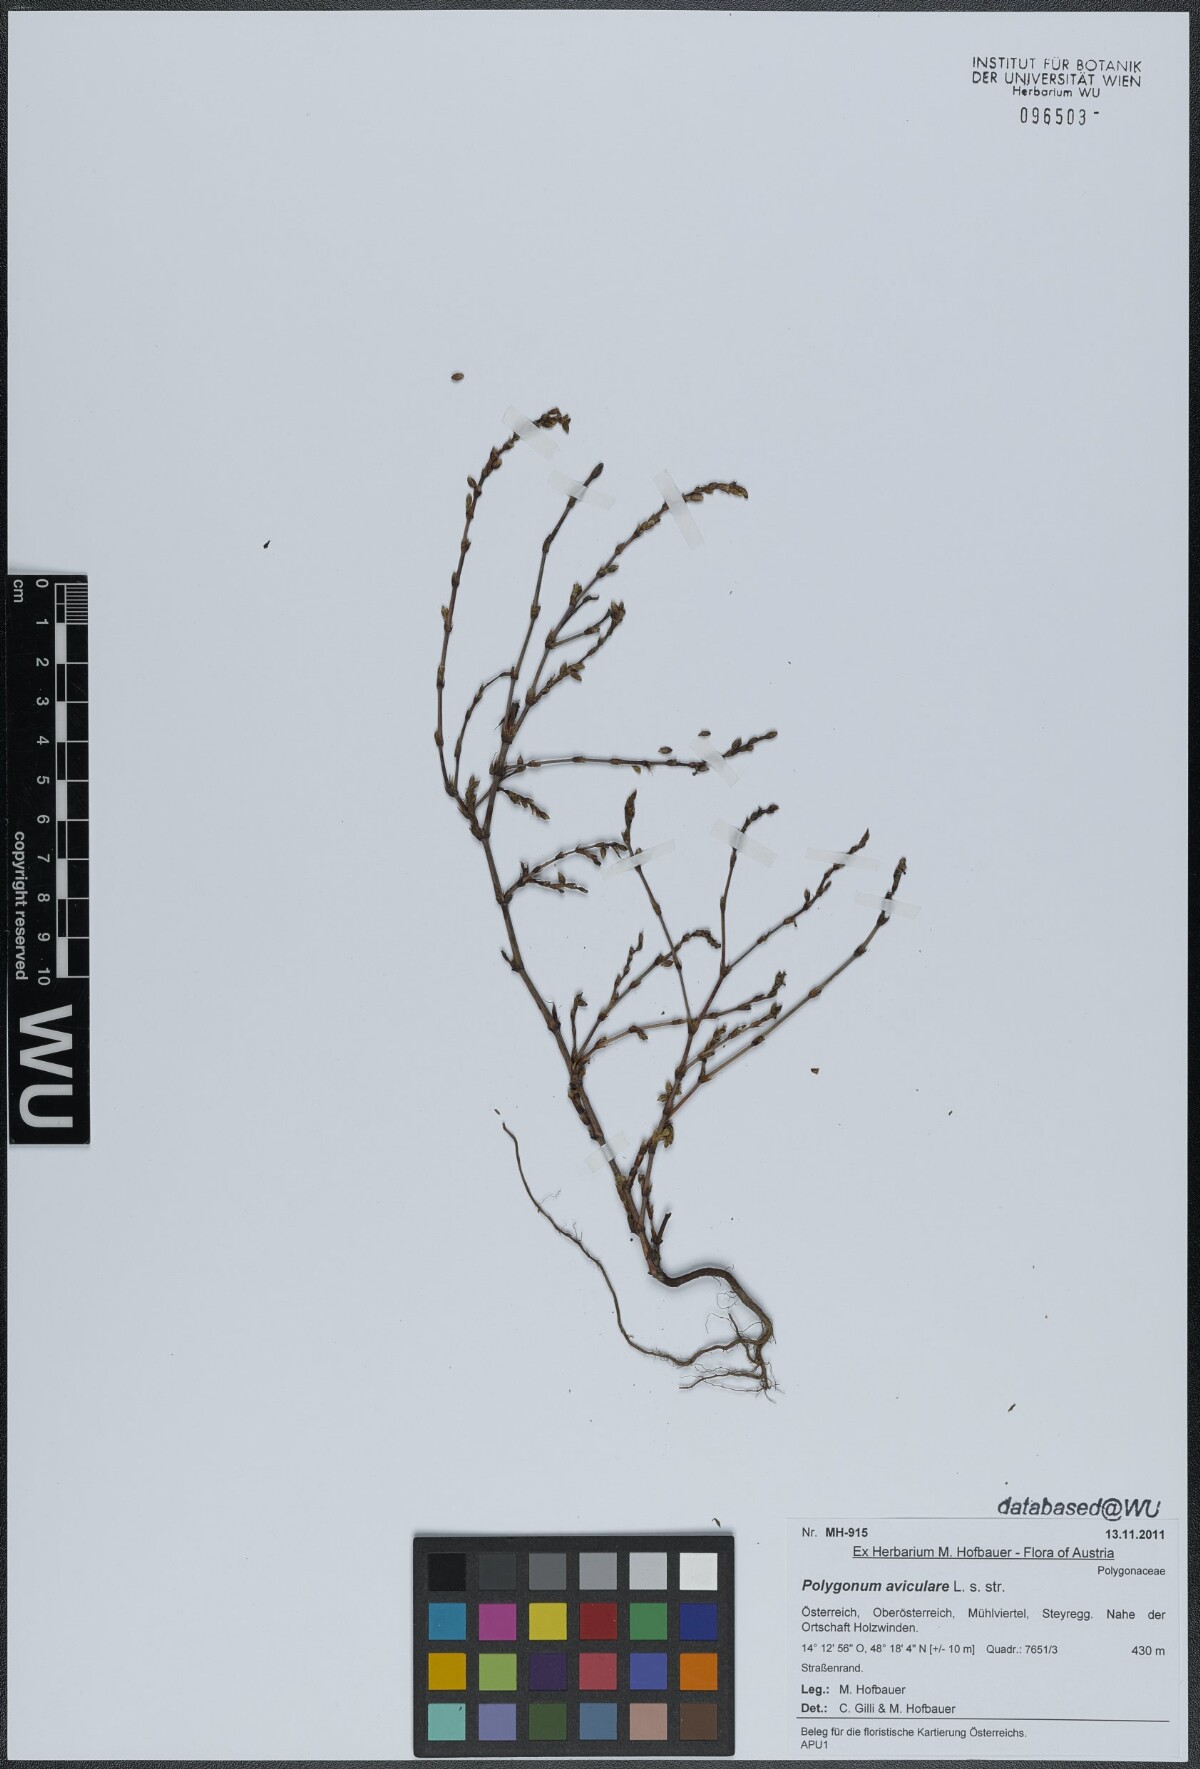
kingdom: Plantae
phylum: Tracheophyta
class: Magnoliopsida
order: Caryophyllales
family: Polygonaceae
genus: Polygonum
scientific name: Polygonum aviculare
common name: Prostrate knotweed
